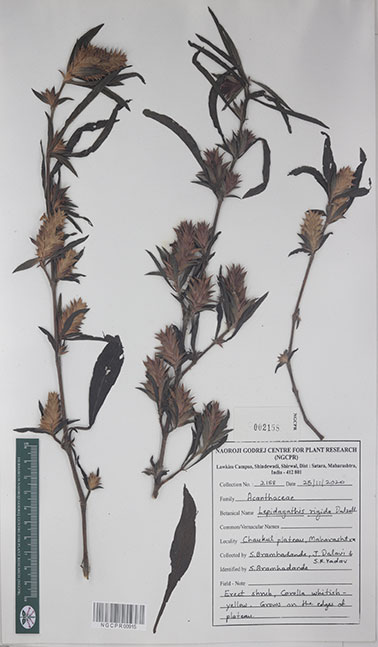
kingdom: Plantae
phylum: Tracheophyta
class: Magnoliopsida
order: Lamiales
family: Acanthaceae
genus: Lepidagathis
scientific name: Lepidagathis rigida
